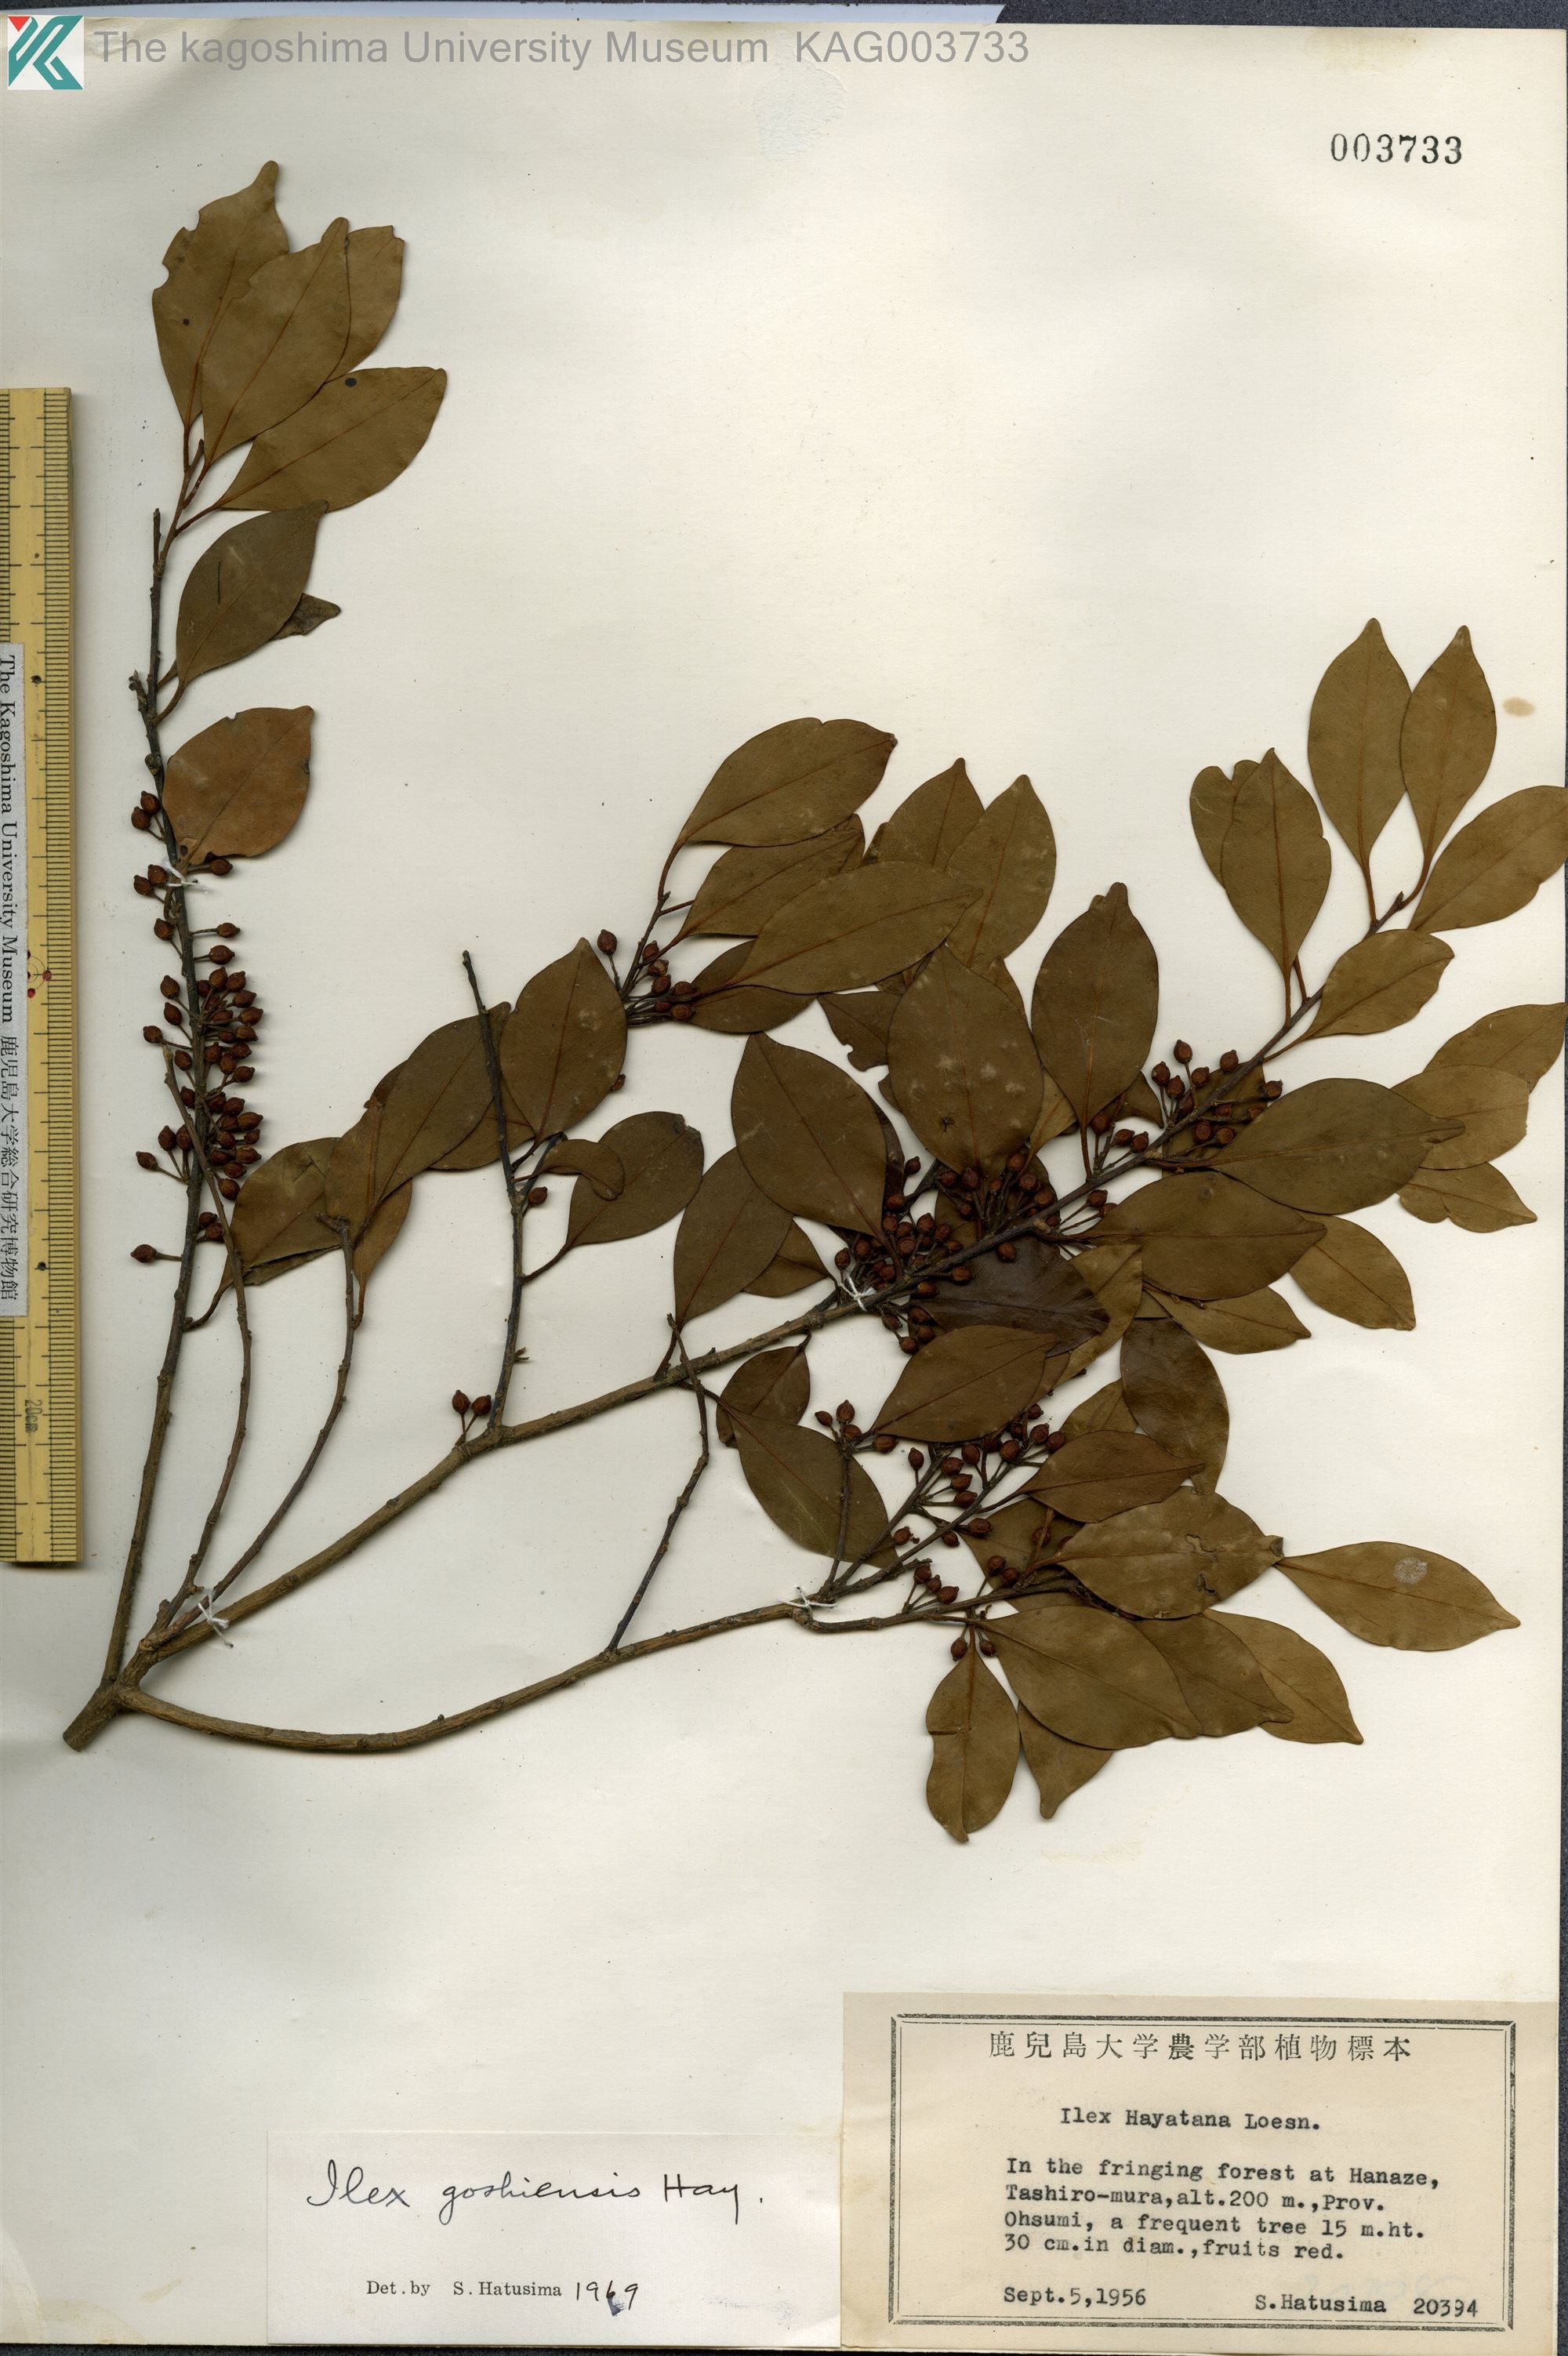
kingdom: Plantae
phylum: Tracheophyta
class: Magnoliopsida
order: Aquifoliales
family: Aquifoliaceae
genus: Ilex
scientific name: Ilex goshiensis
